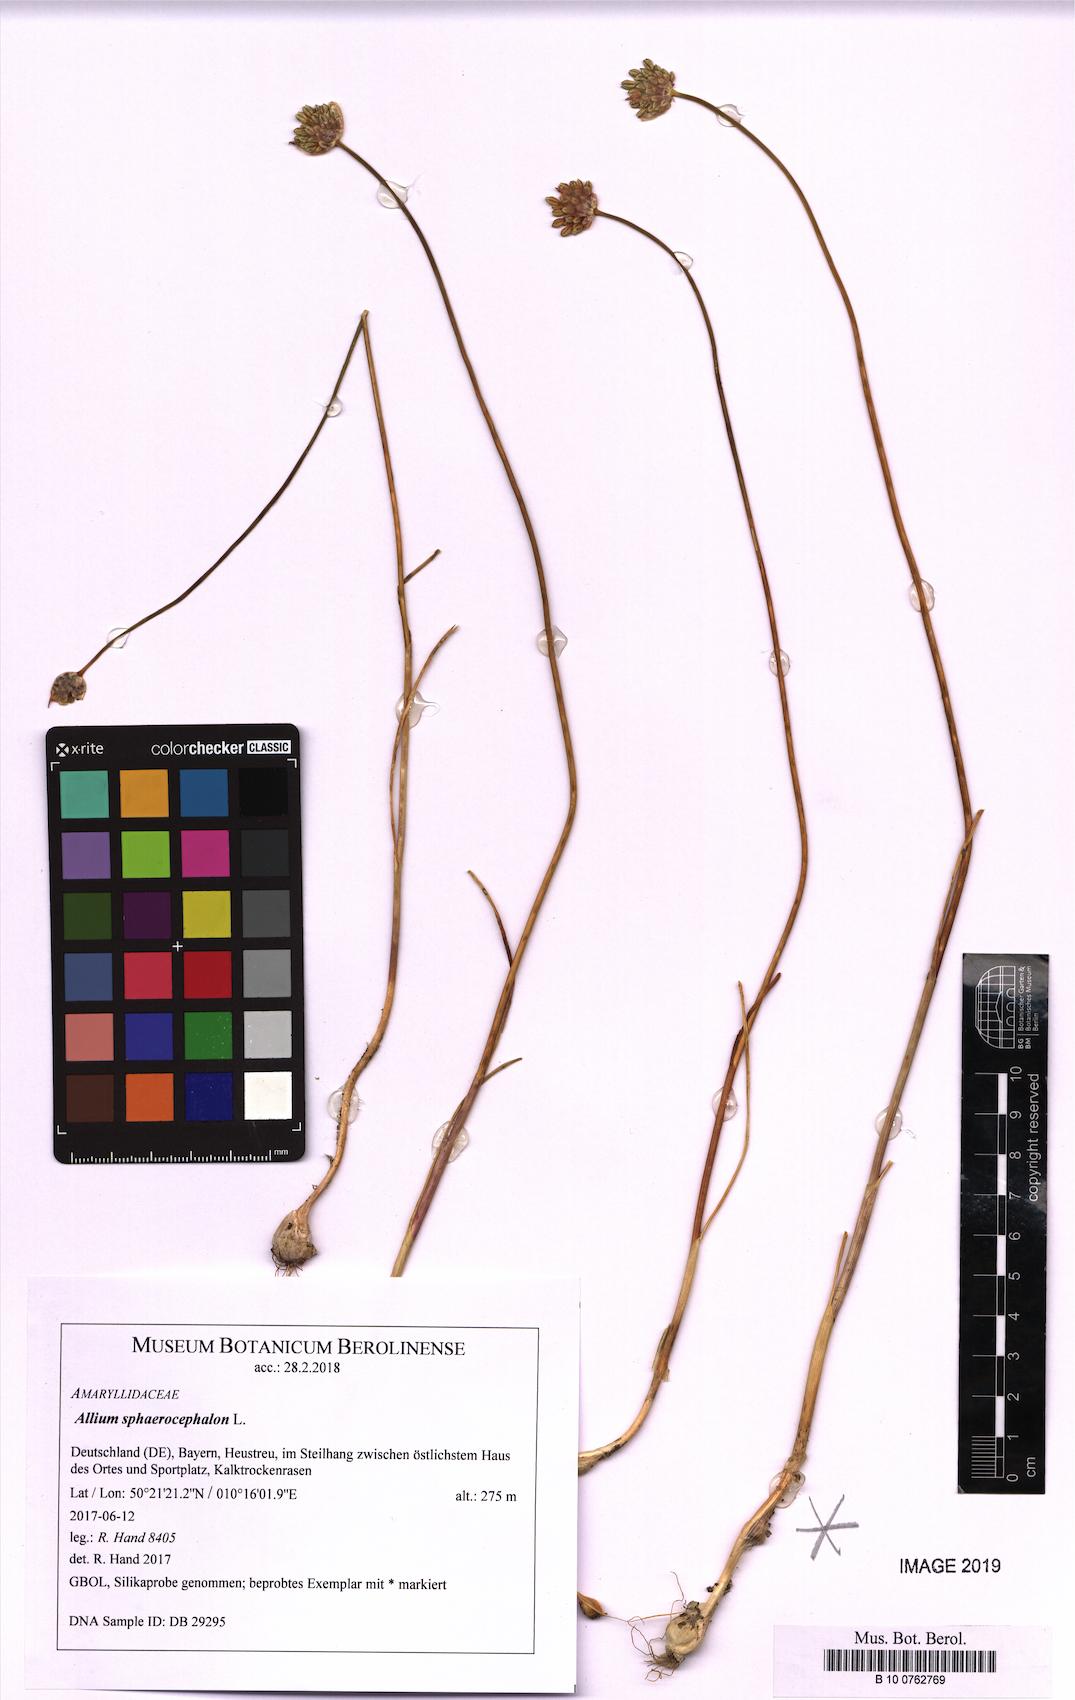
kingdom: Plantae
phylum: Tracheophyta
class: Liliopsida
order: Asparagales
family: Amaryllidaceae
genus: Allium
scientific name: Allium sphaerocephalon
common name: Round-headed leek
